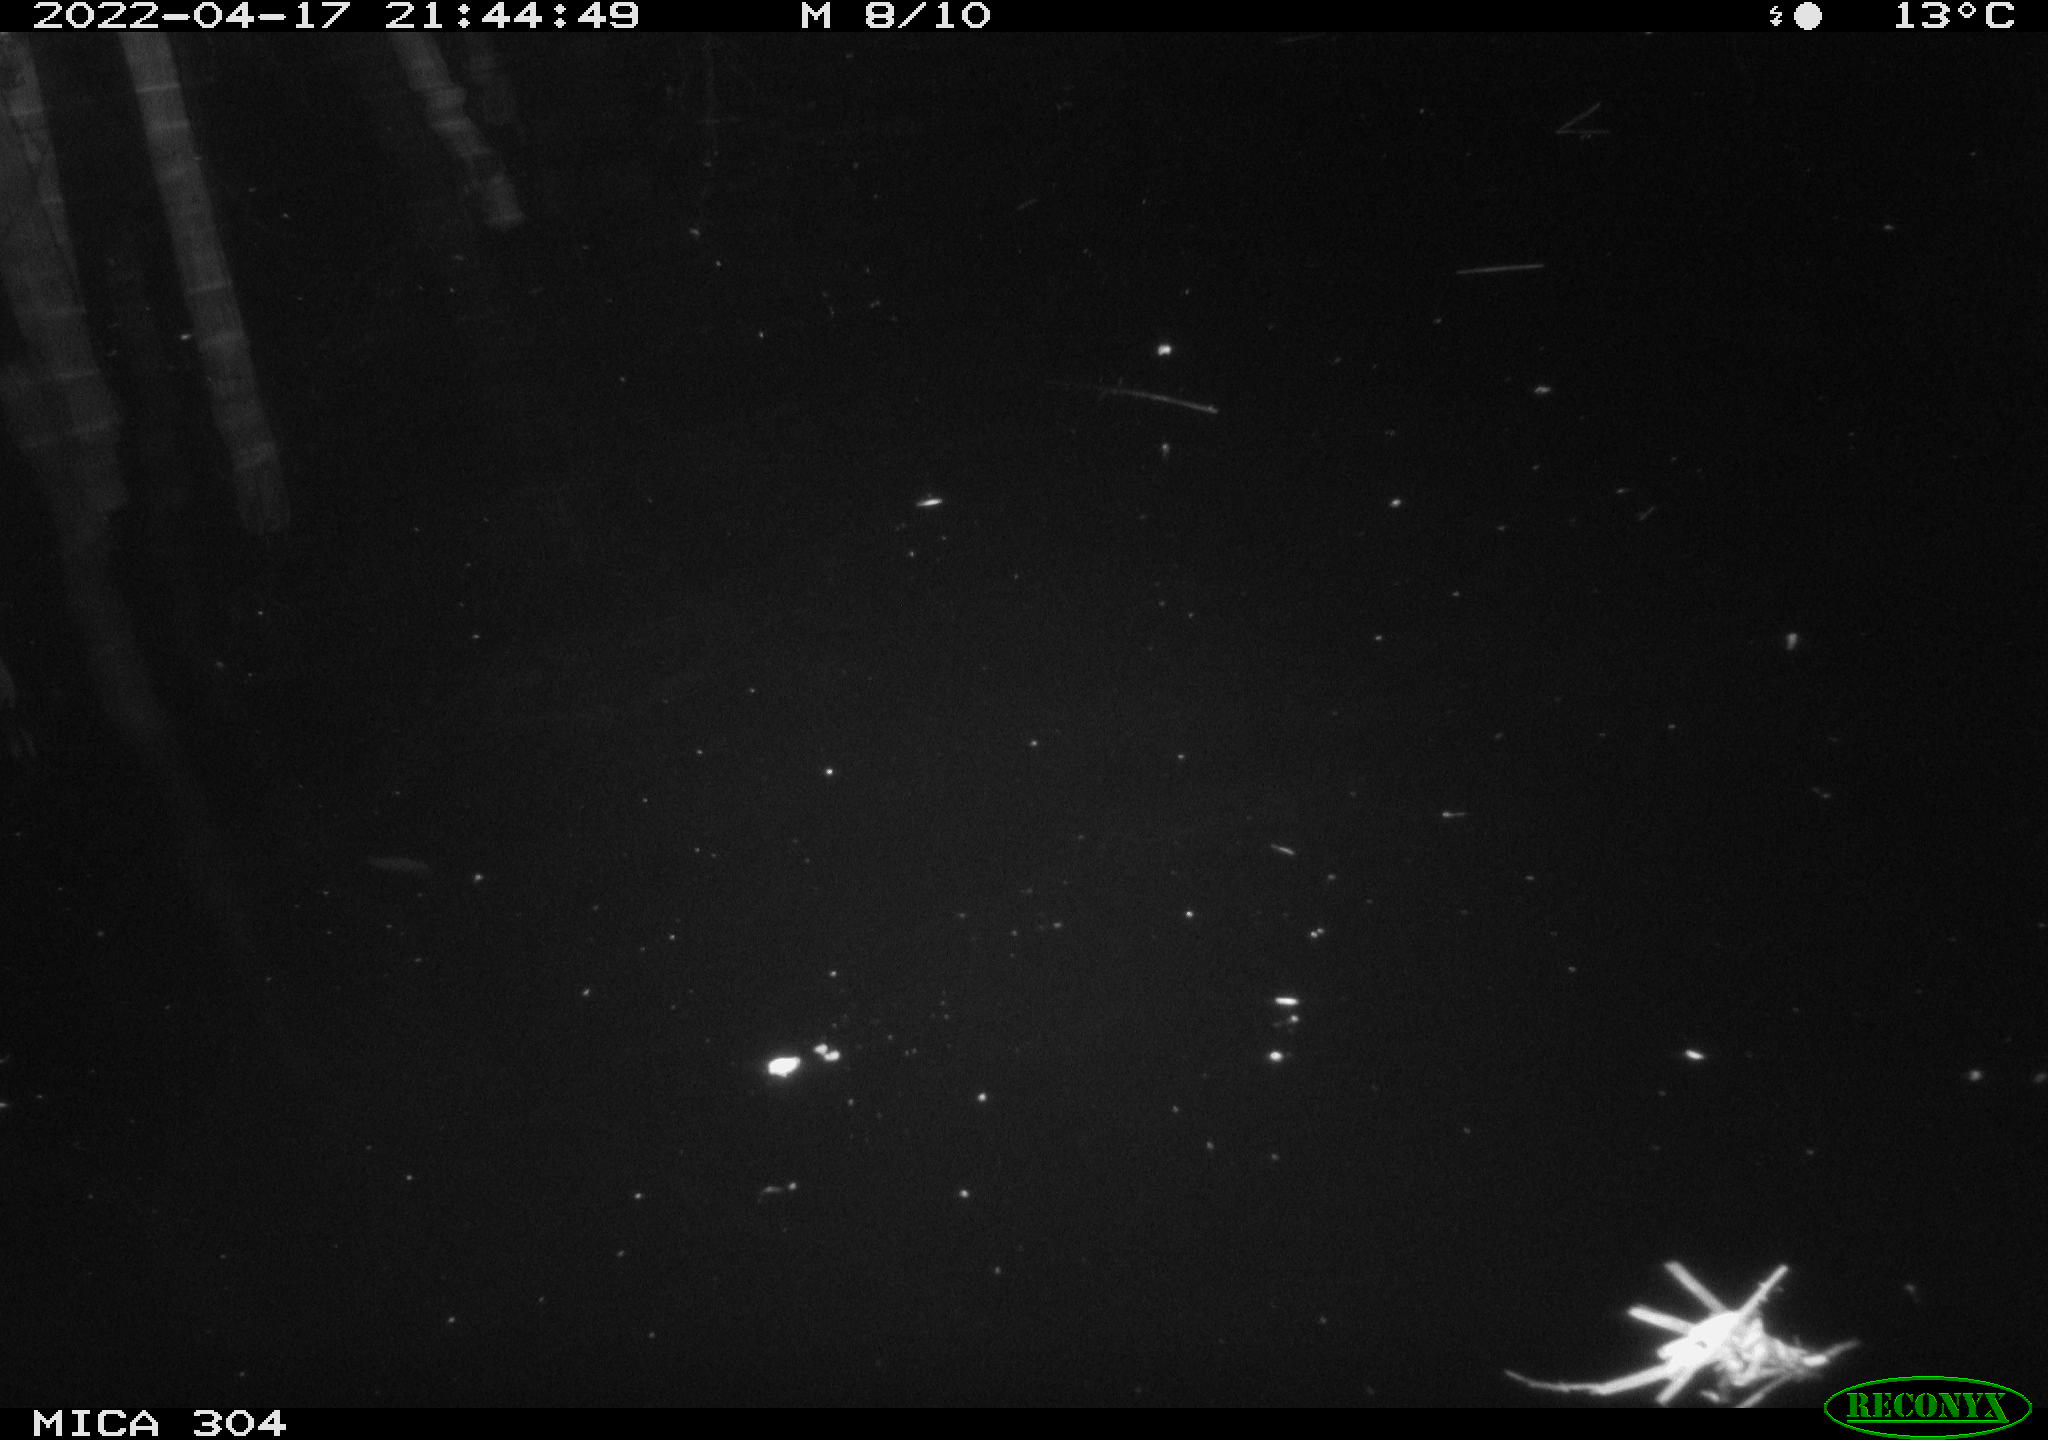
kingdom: Animalia
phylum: Chordata
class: Aves
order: Anseriformes
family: Anatidae
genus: Anas
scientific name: Anas platyrhynchos
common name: Mallard
